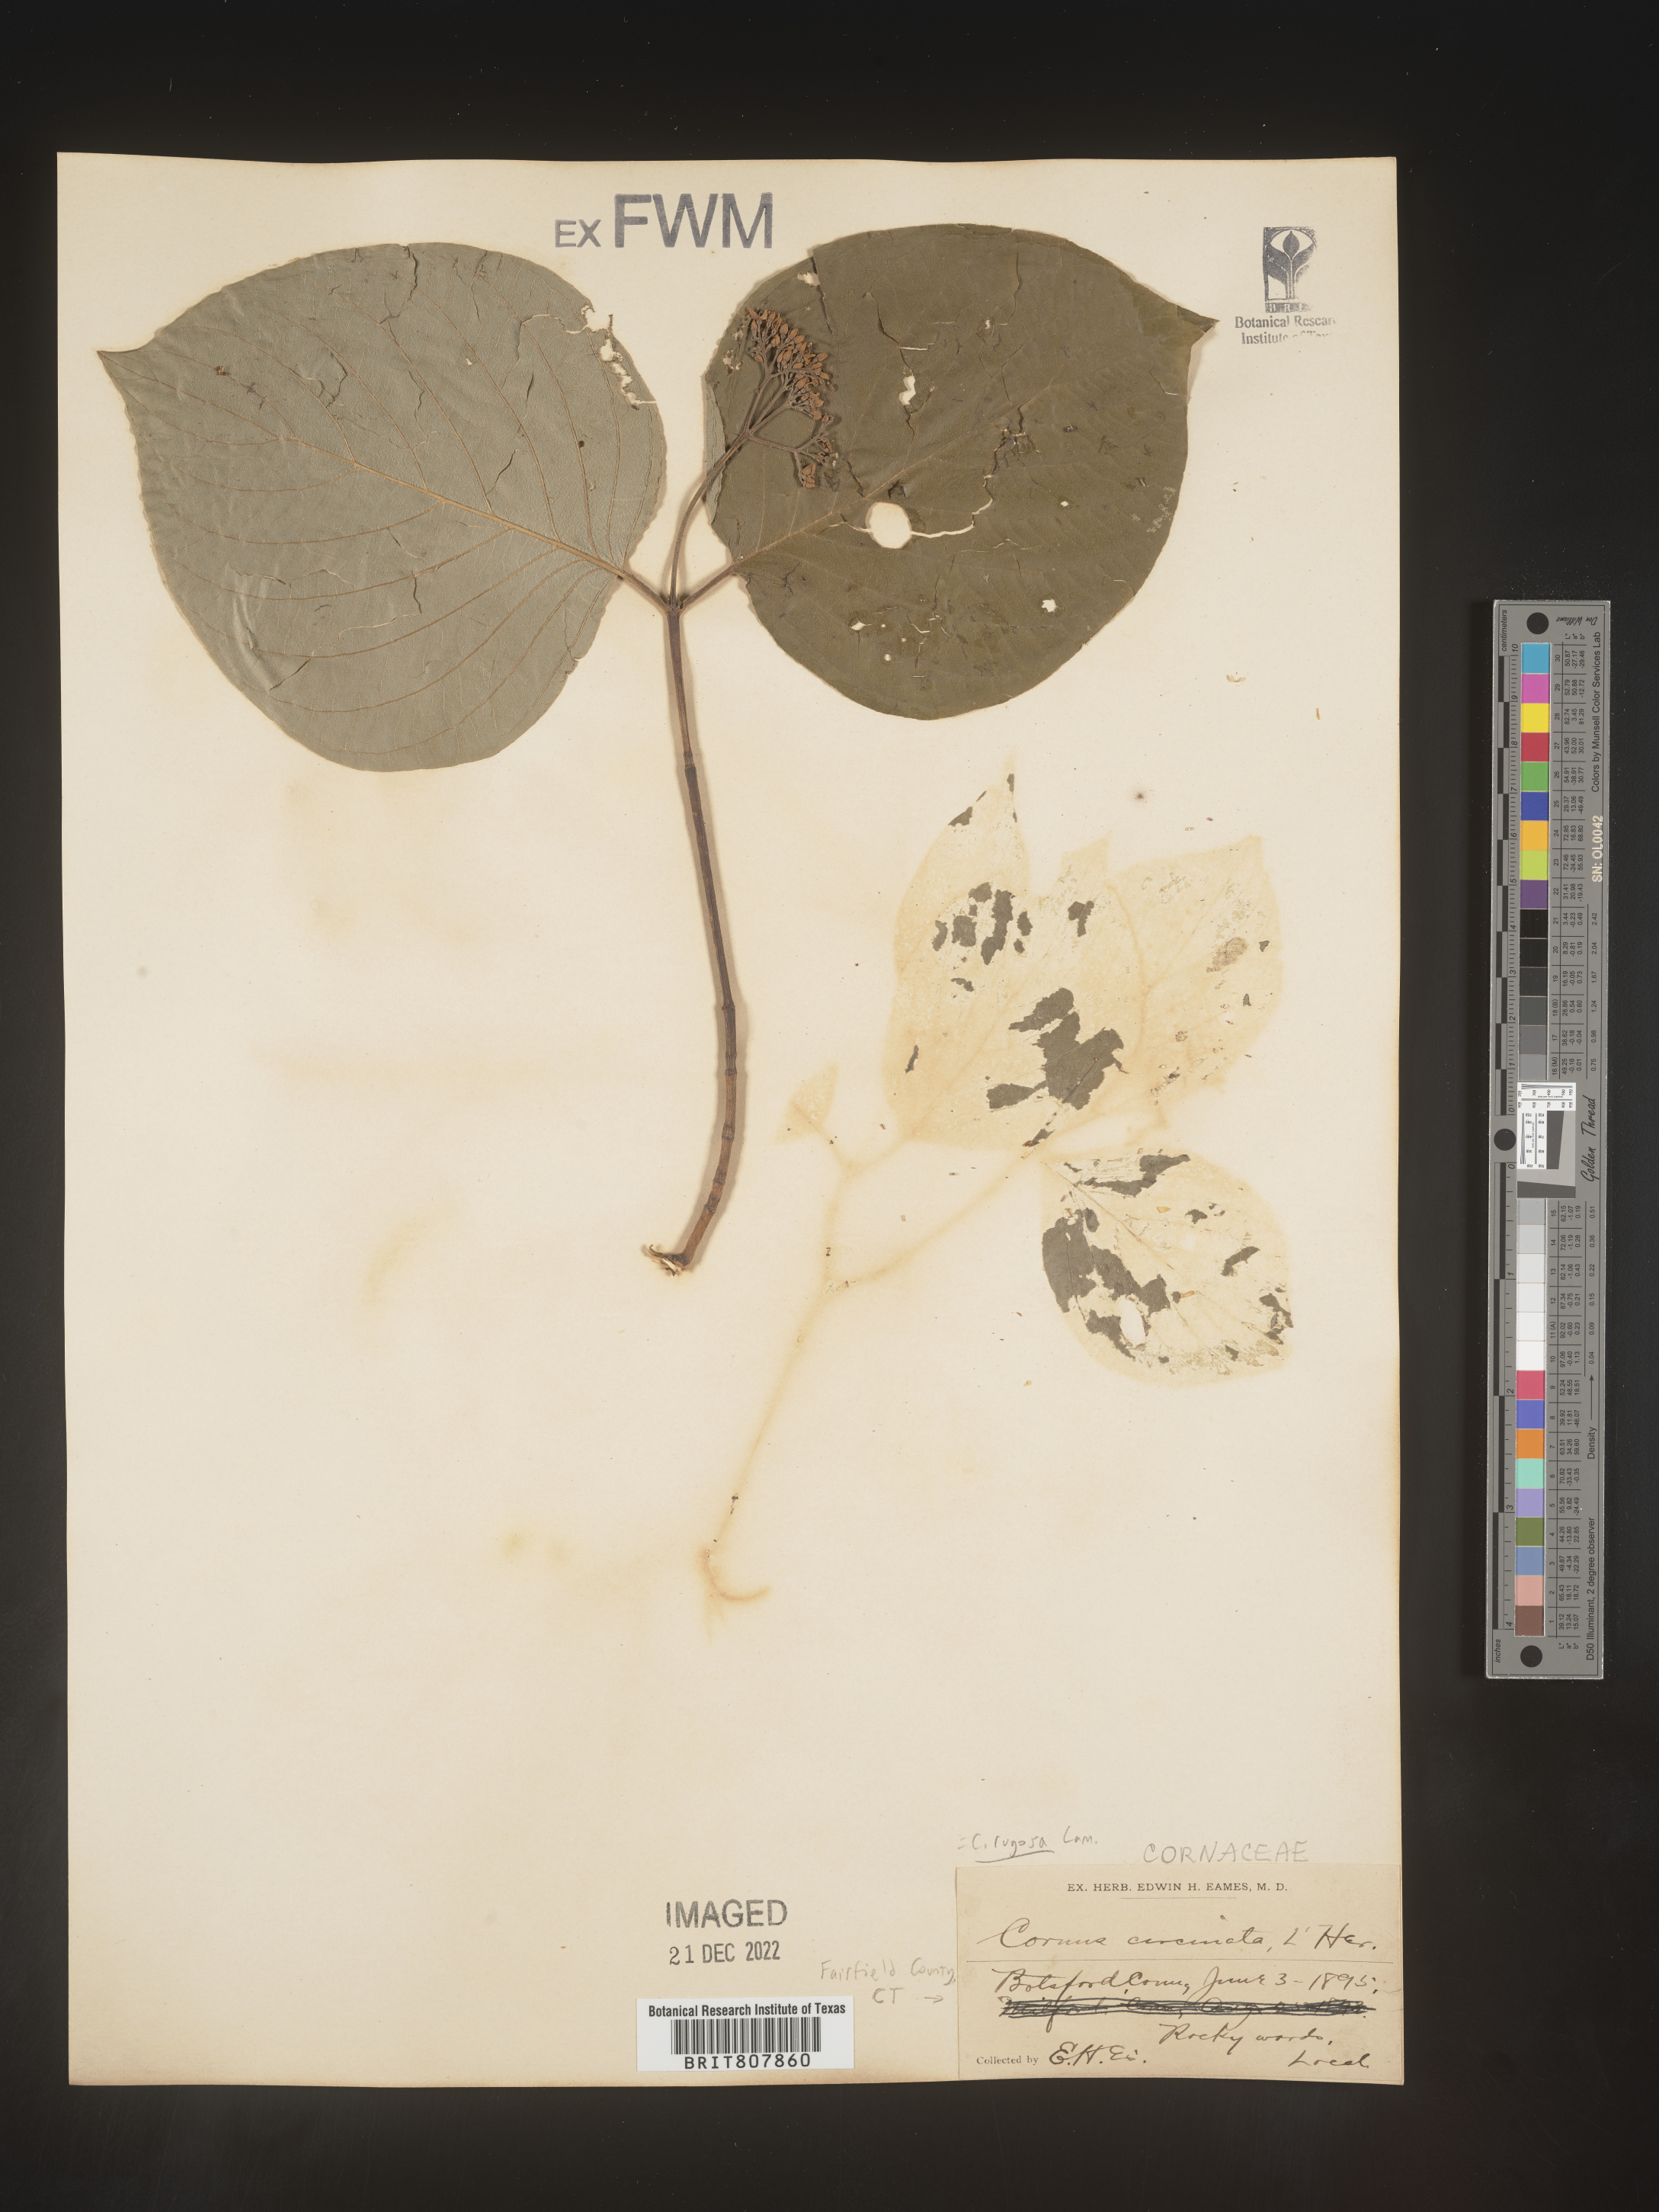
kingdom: Plantae
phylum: Tracheophyta
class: Magnoliopsida
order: Cornales
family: Cornaceae
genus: Cornus
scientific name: Cornus rugosa
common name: Round-leaf dogwood
